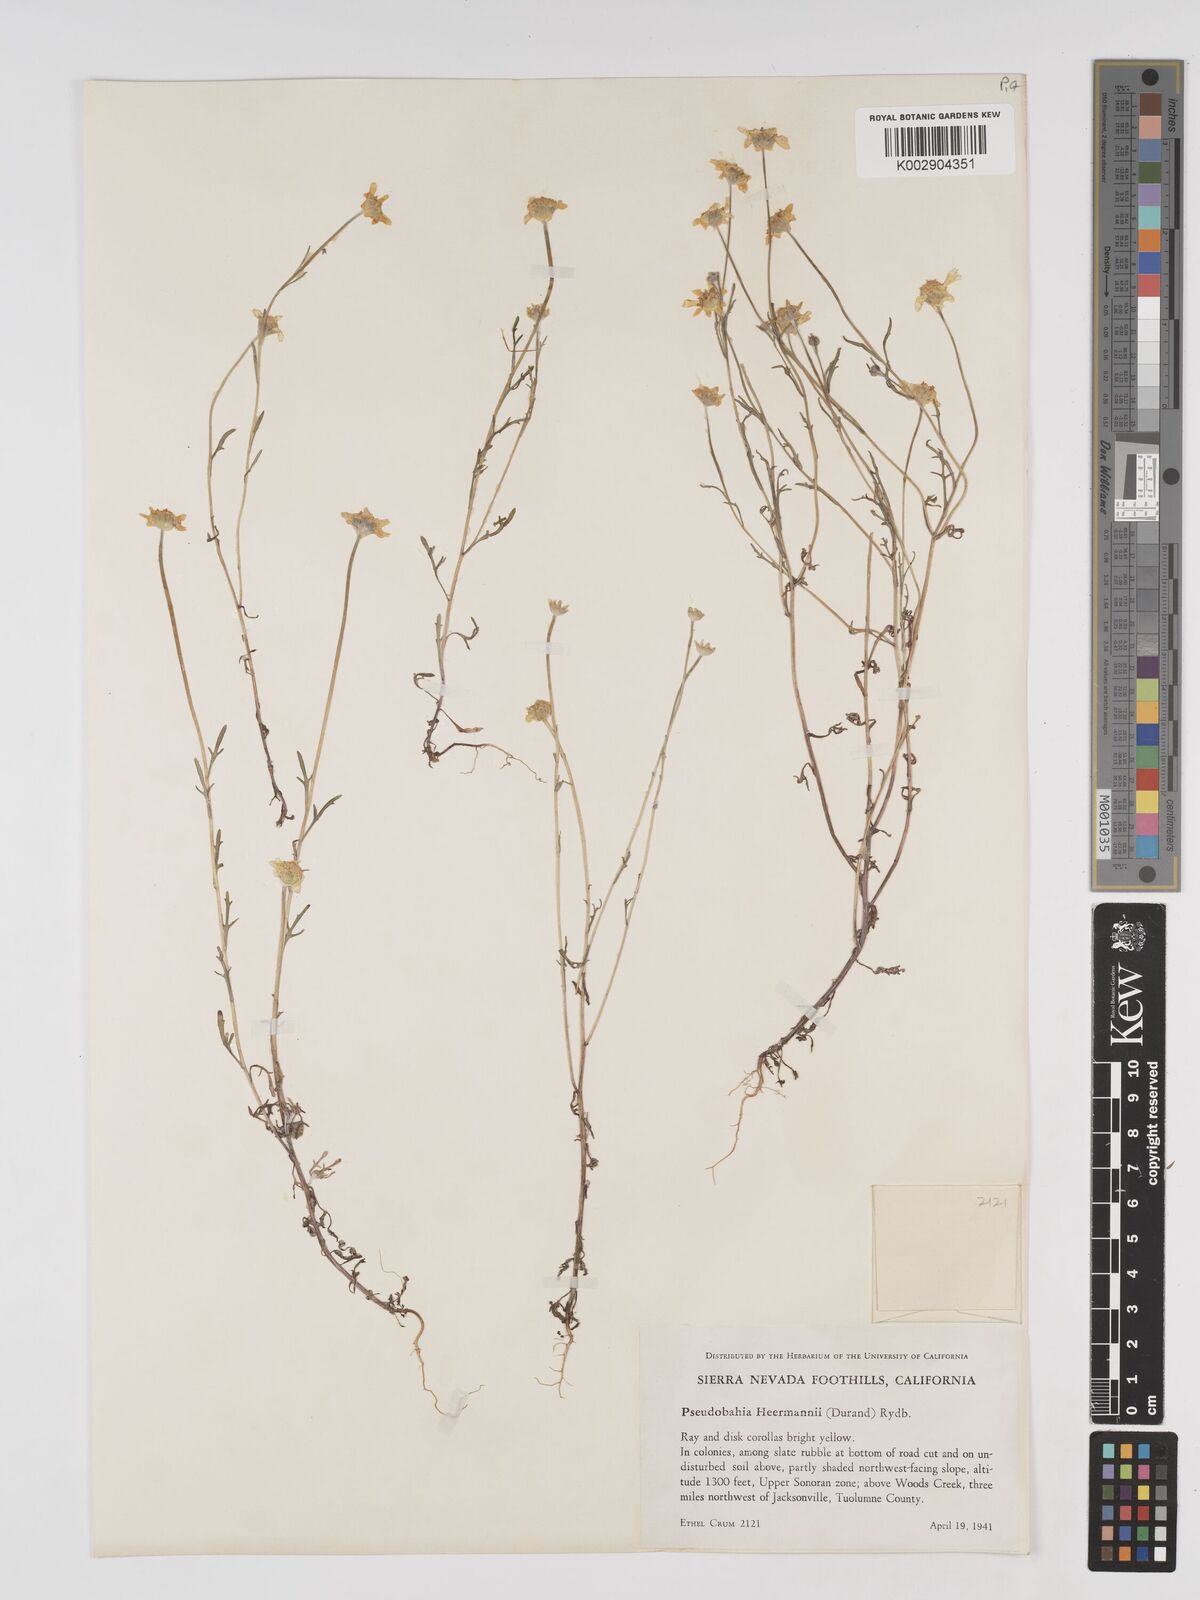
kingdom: Plantae
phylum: Tracheophyta
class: Magnoliopsida
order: Asterales
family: Asteraceae
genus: Eriophyllum
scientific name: Eriophyllum jepsonii
